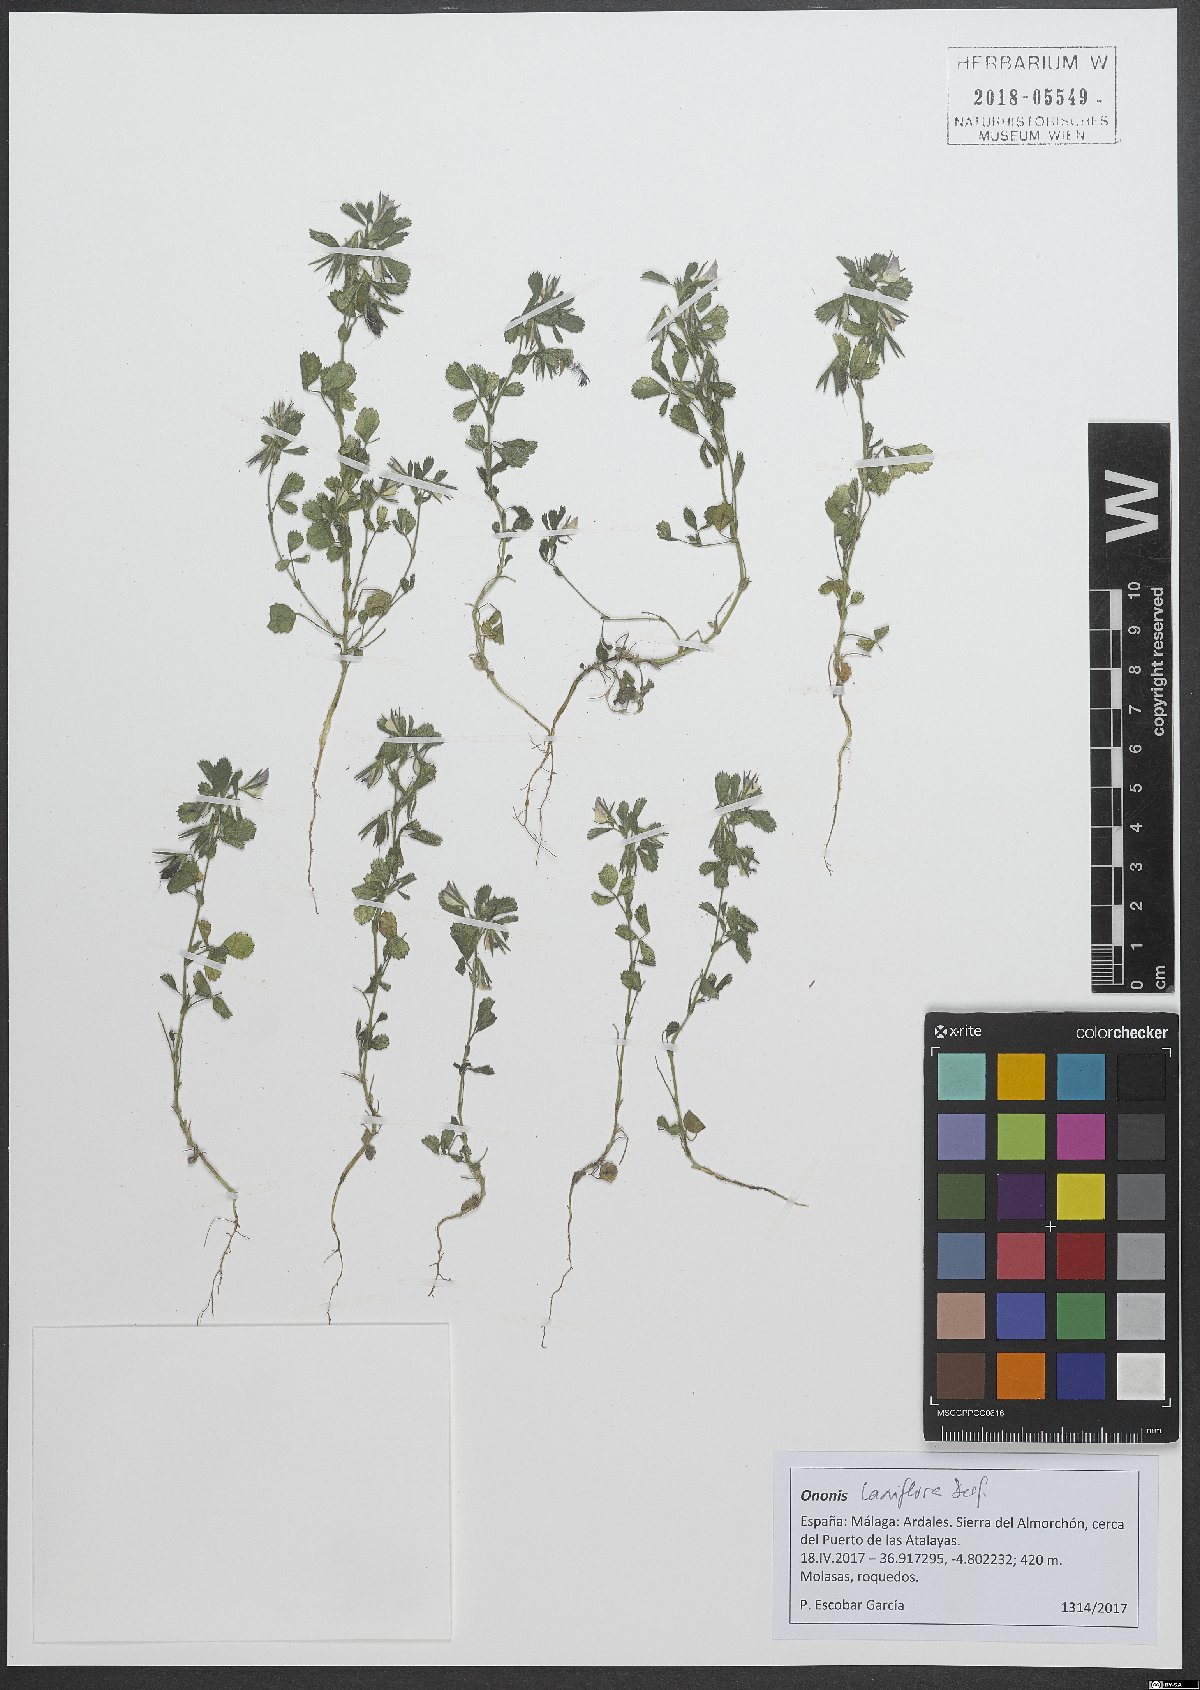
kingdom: Plantae
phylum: Tracheophyta
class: Magnoliopsida
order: Fabales
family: Fabaceae
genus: Ononis
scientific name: Ononis laxiflora
